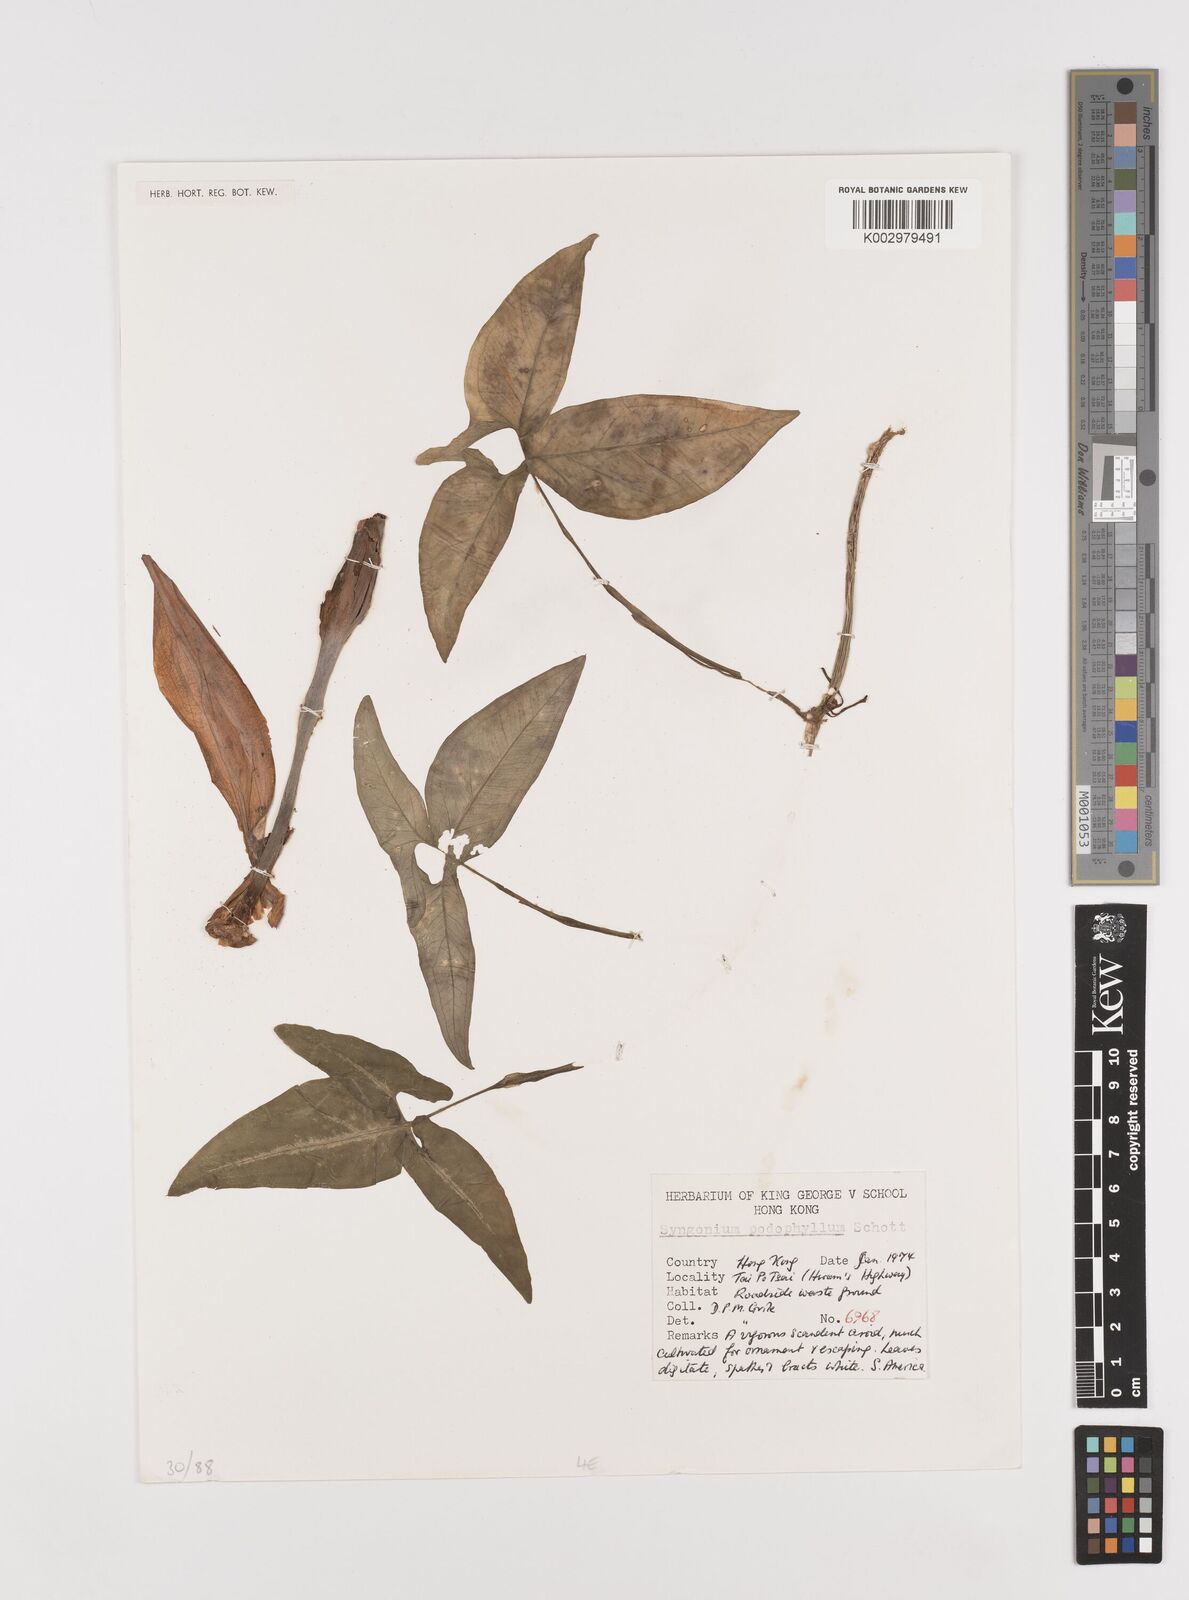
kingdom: Plantae
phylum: Tracheophyta
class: Liliopsida
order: Alismatales
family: Araceae
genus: Syngonium
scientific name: Syngonium podophyllum
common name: American evergreen
